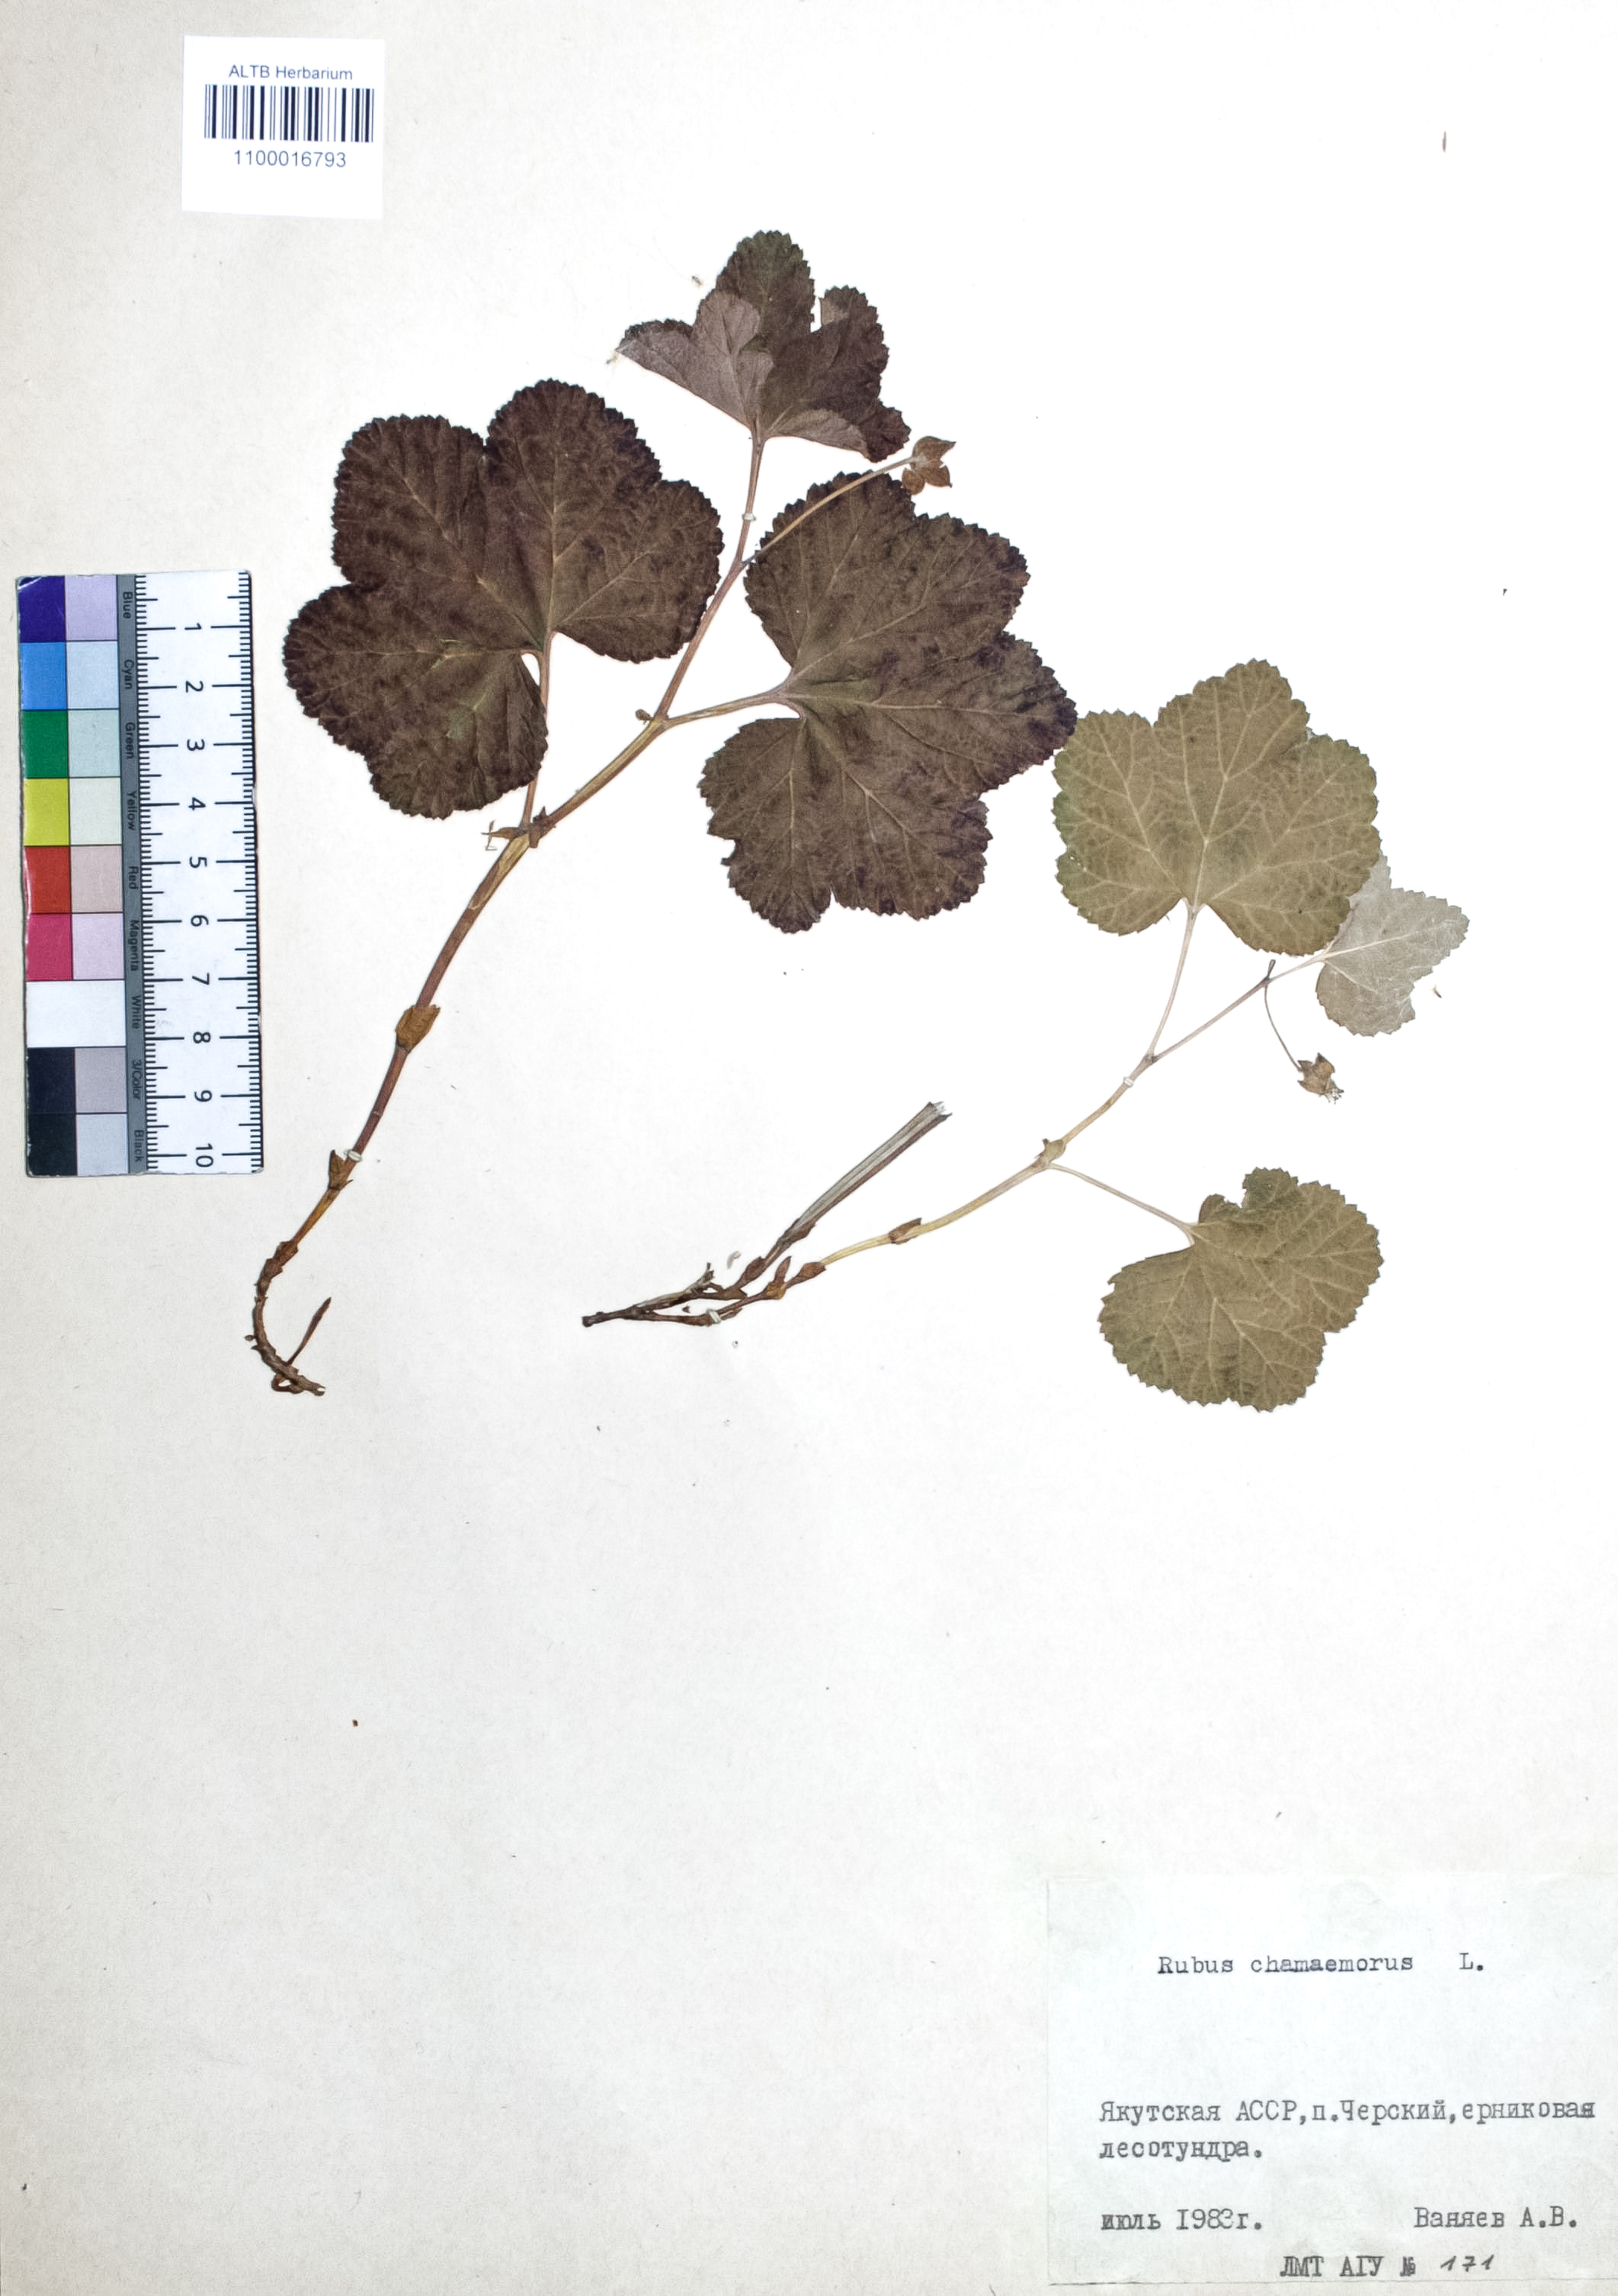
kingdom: Plantae
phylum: Tracheophyta
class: Magnoliopsida
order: Rosales
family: Rosaceae
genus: Rubus
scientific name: Rubus chamaemorus
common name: Cloudberry
